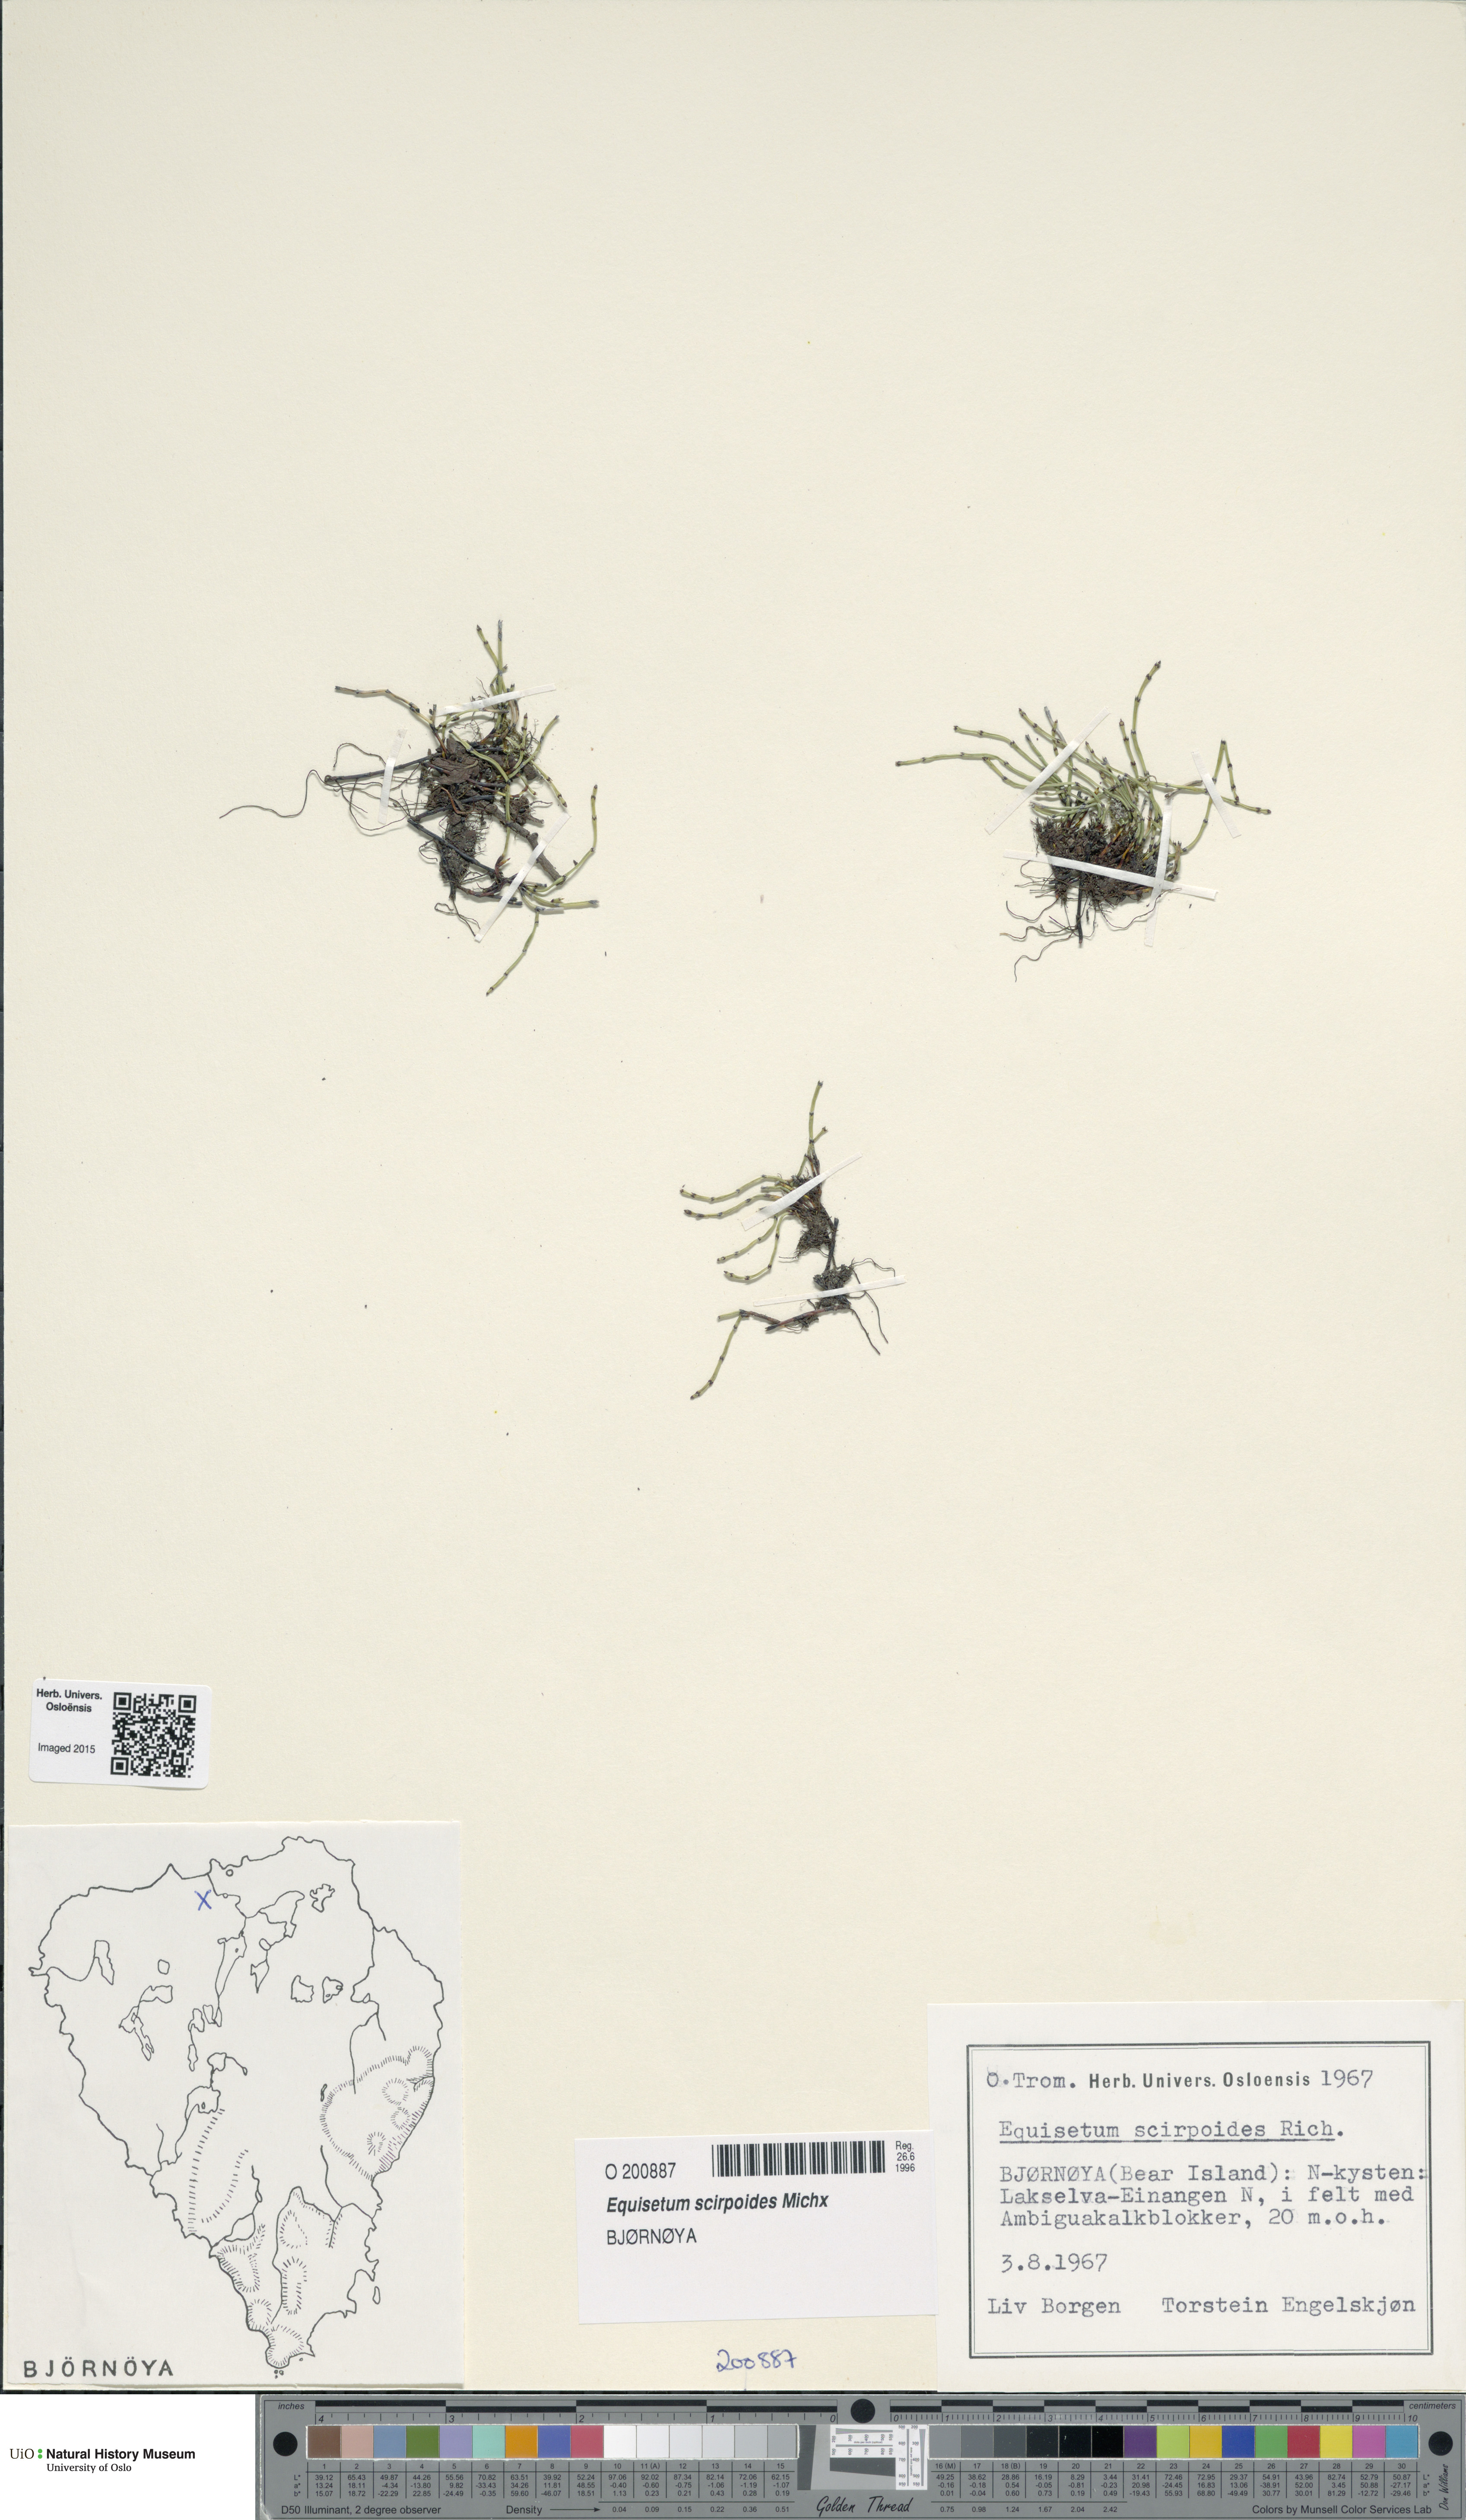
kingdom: Plantae
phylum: Tracheophyta
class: Polypodiopsida
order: Equisetales
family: Equisetaceae
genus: Equisetum
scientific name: Equisetum scirpoides
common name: Delicate horsetail
